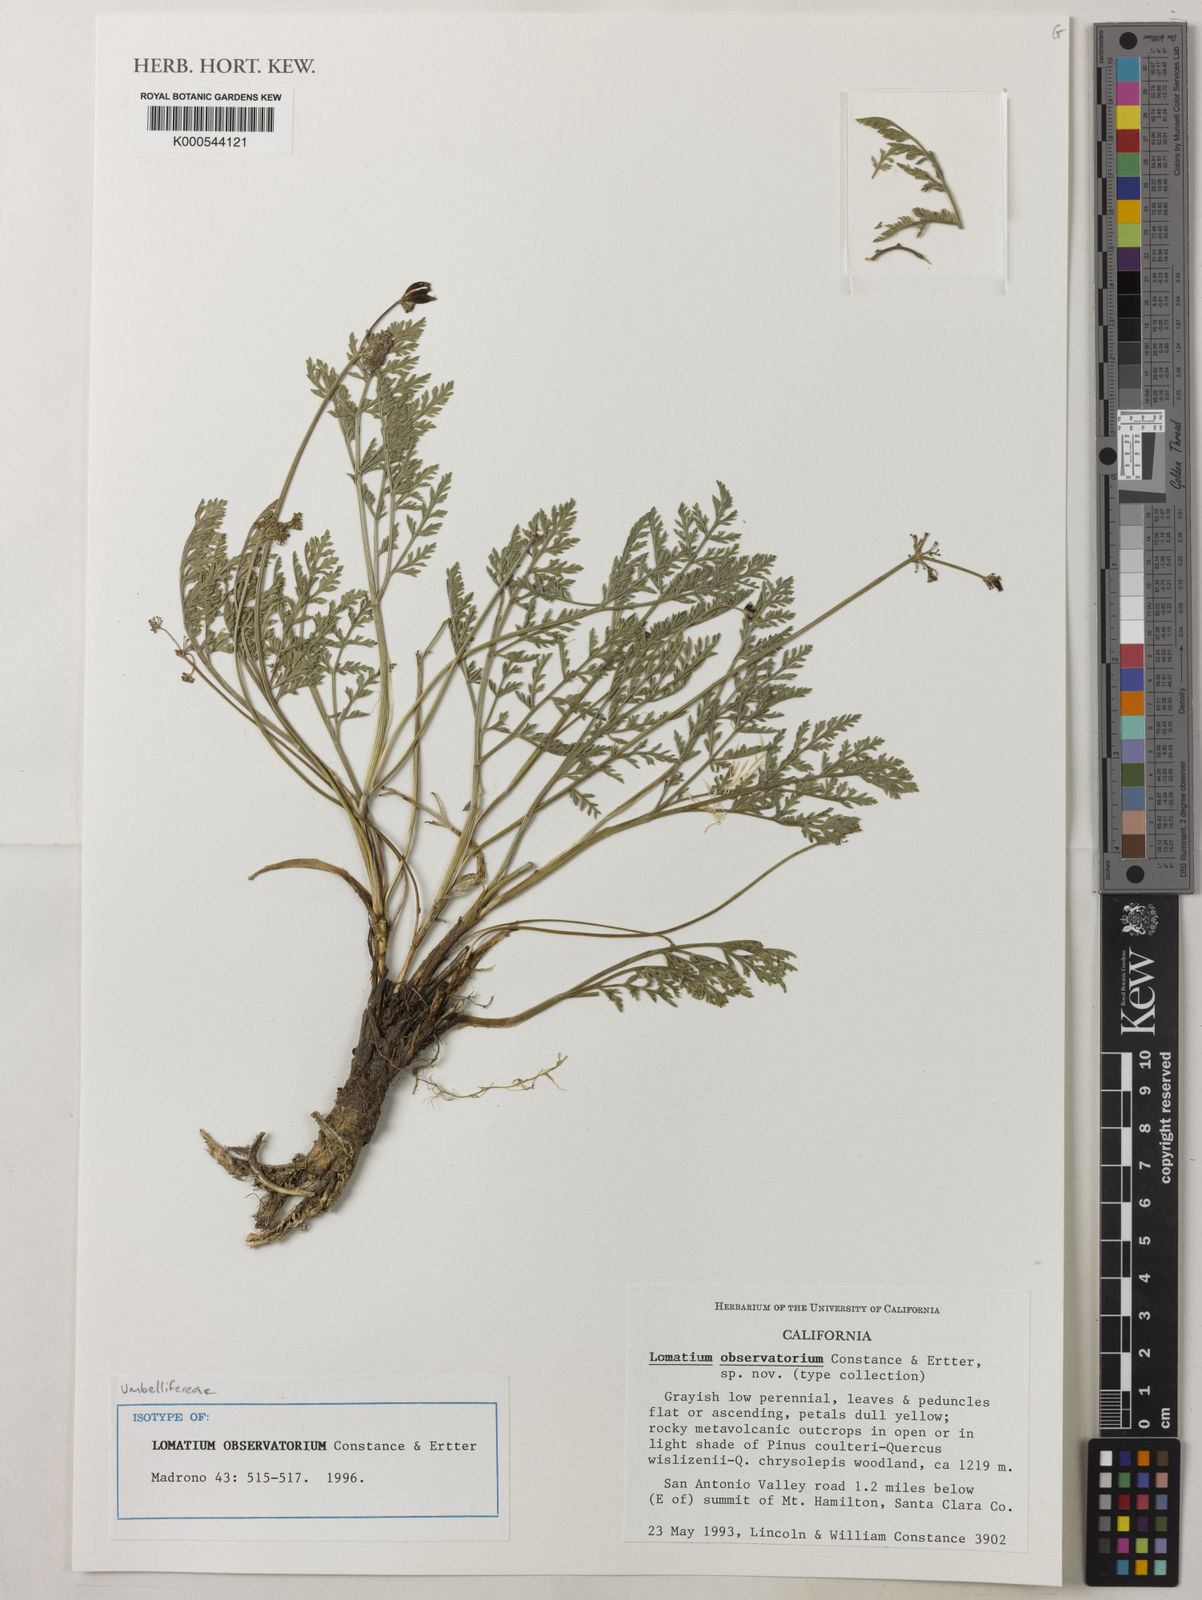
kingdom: Plantae
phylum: Tracheophyta
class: Magnoliopsida
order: Apiales
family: Apiaceae
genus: Lomatium
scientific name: Lomatium observatorium
